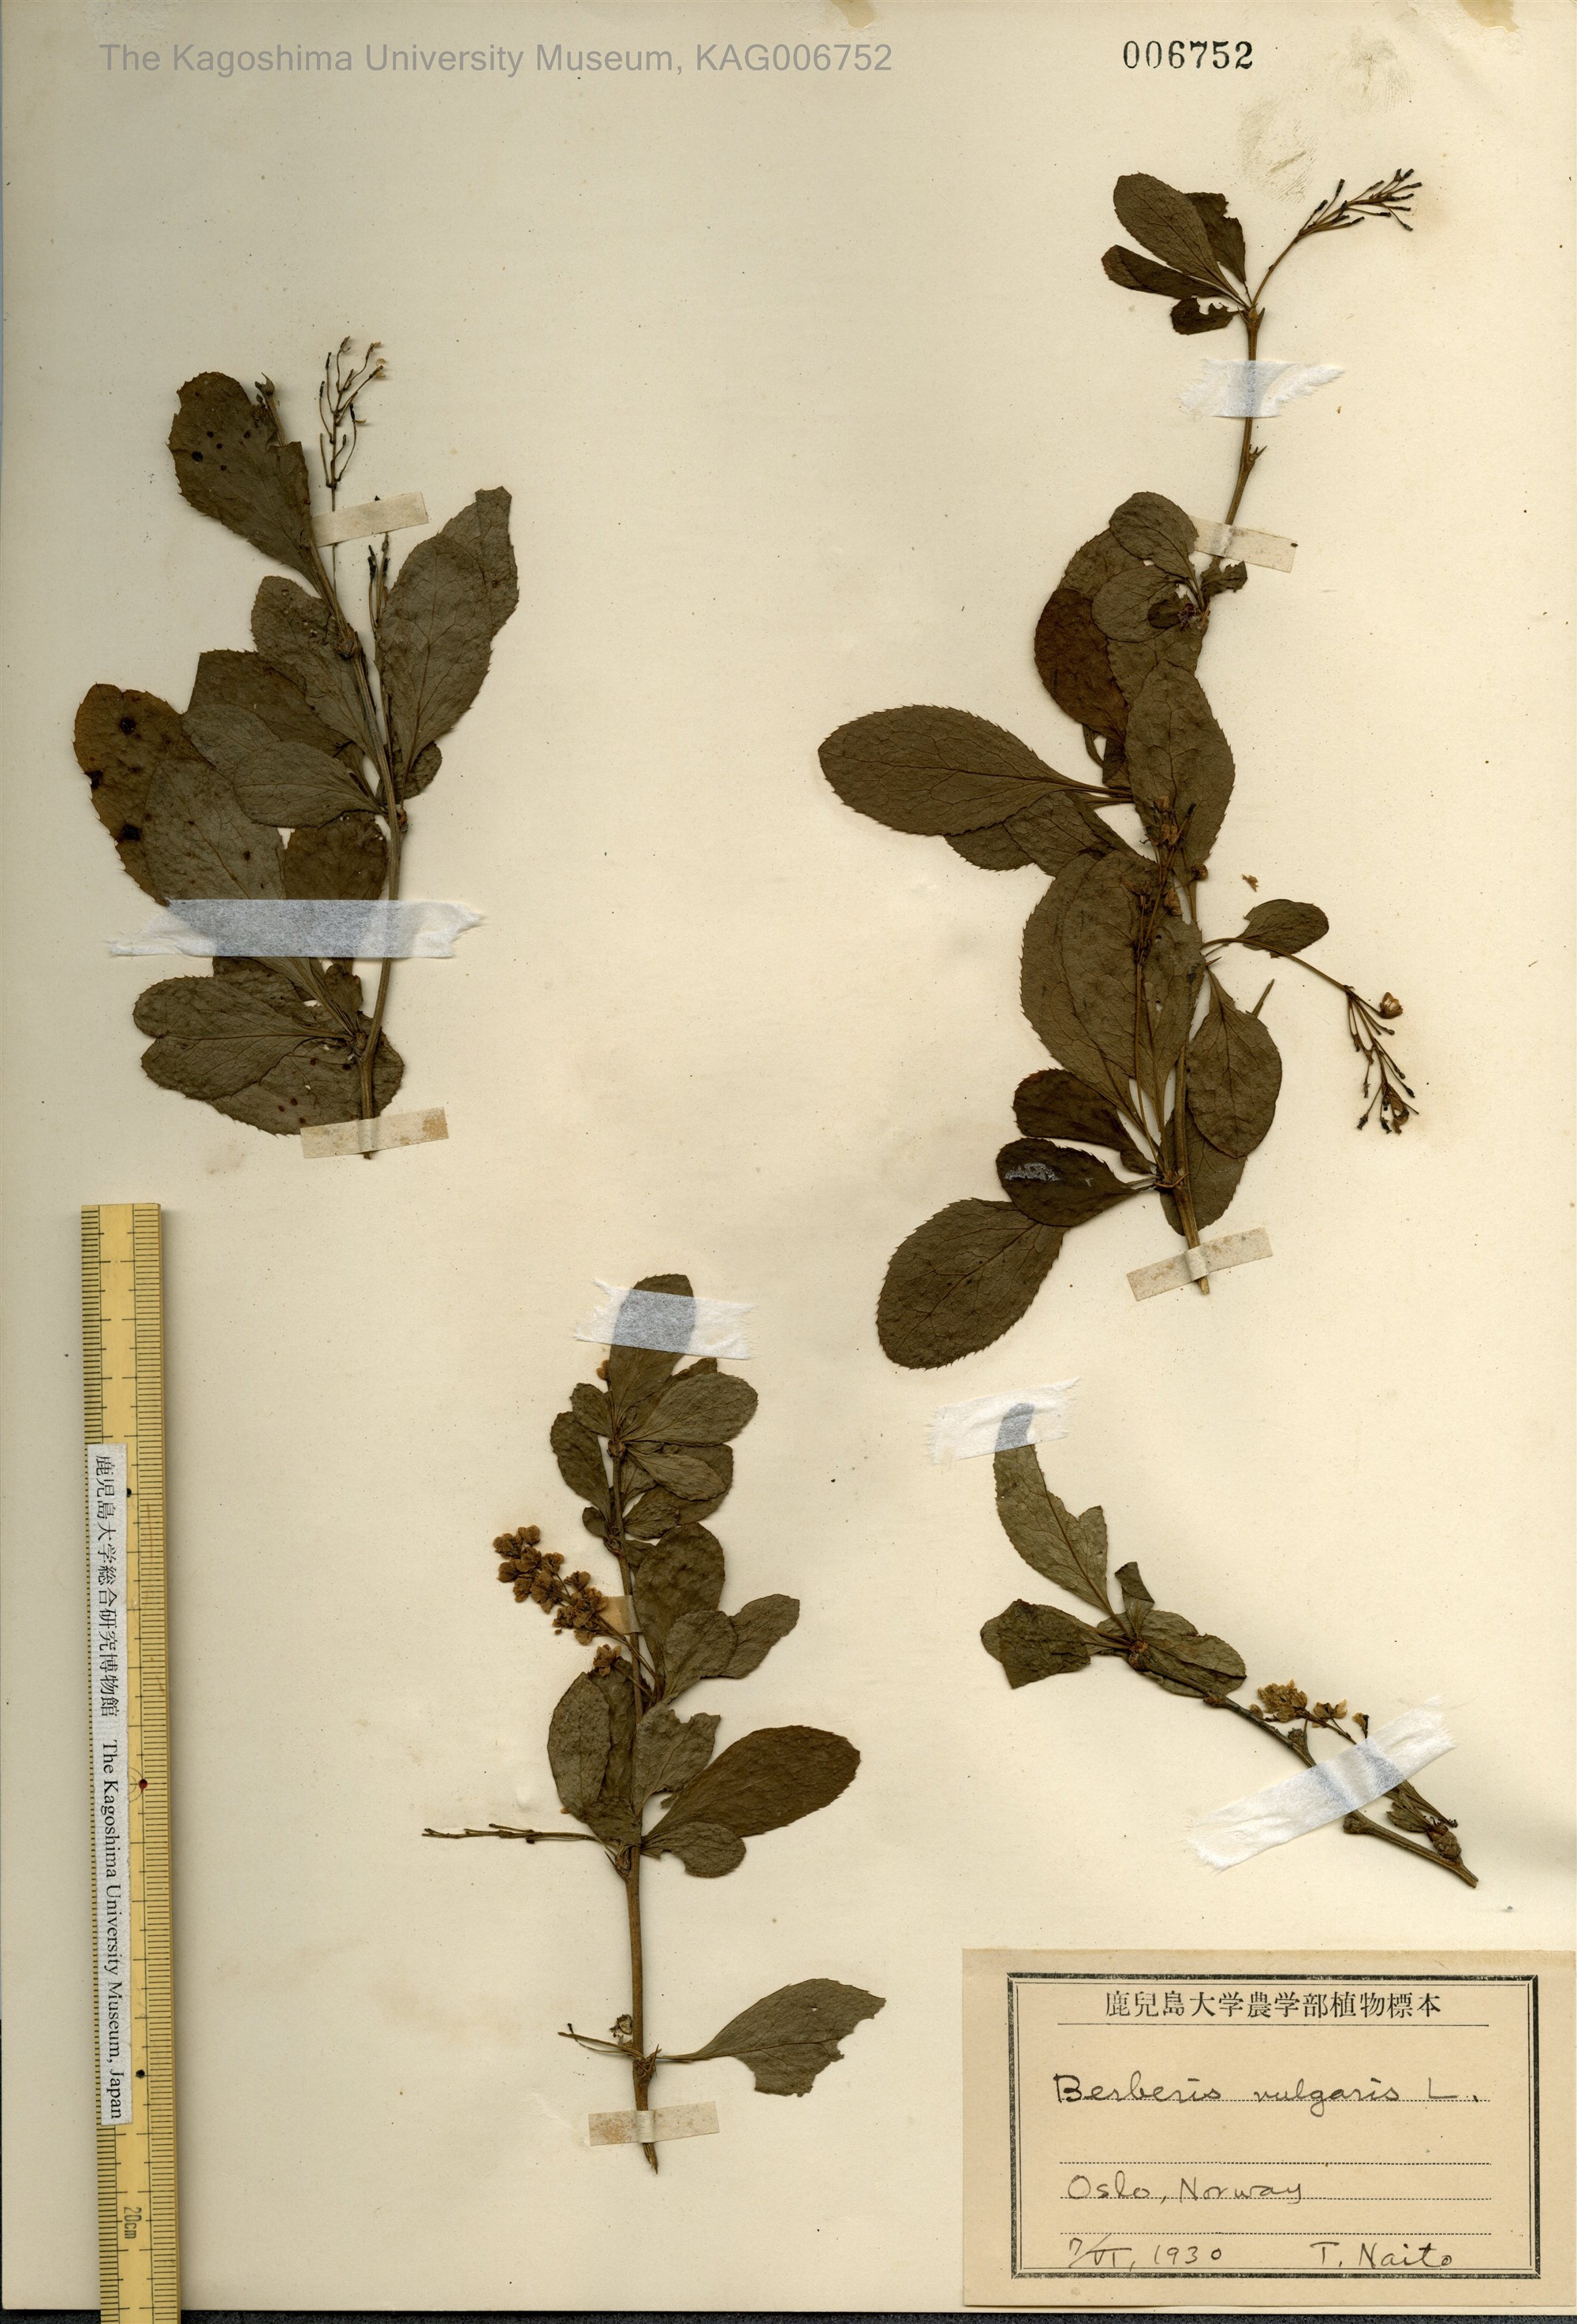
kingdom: Plantae
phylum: Tracheophyta
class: Magnoliopsida
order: Ranunculales
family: Berberidaceae
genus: Berberis
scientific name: Berberis vulgaris
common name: Barberry
